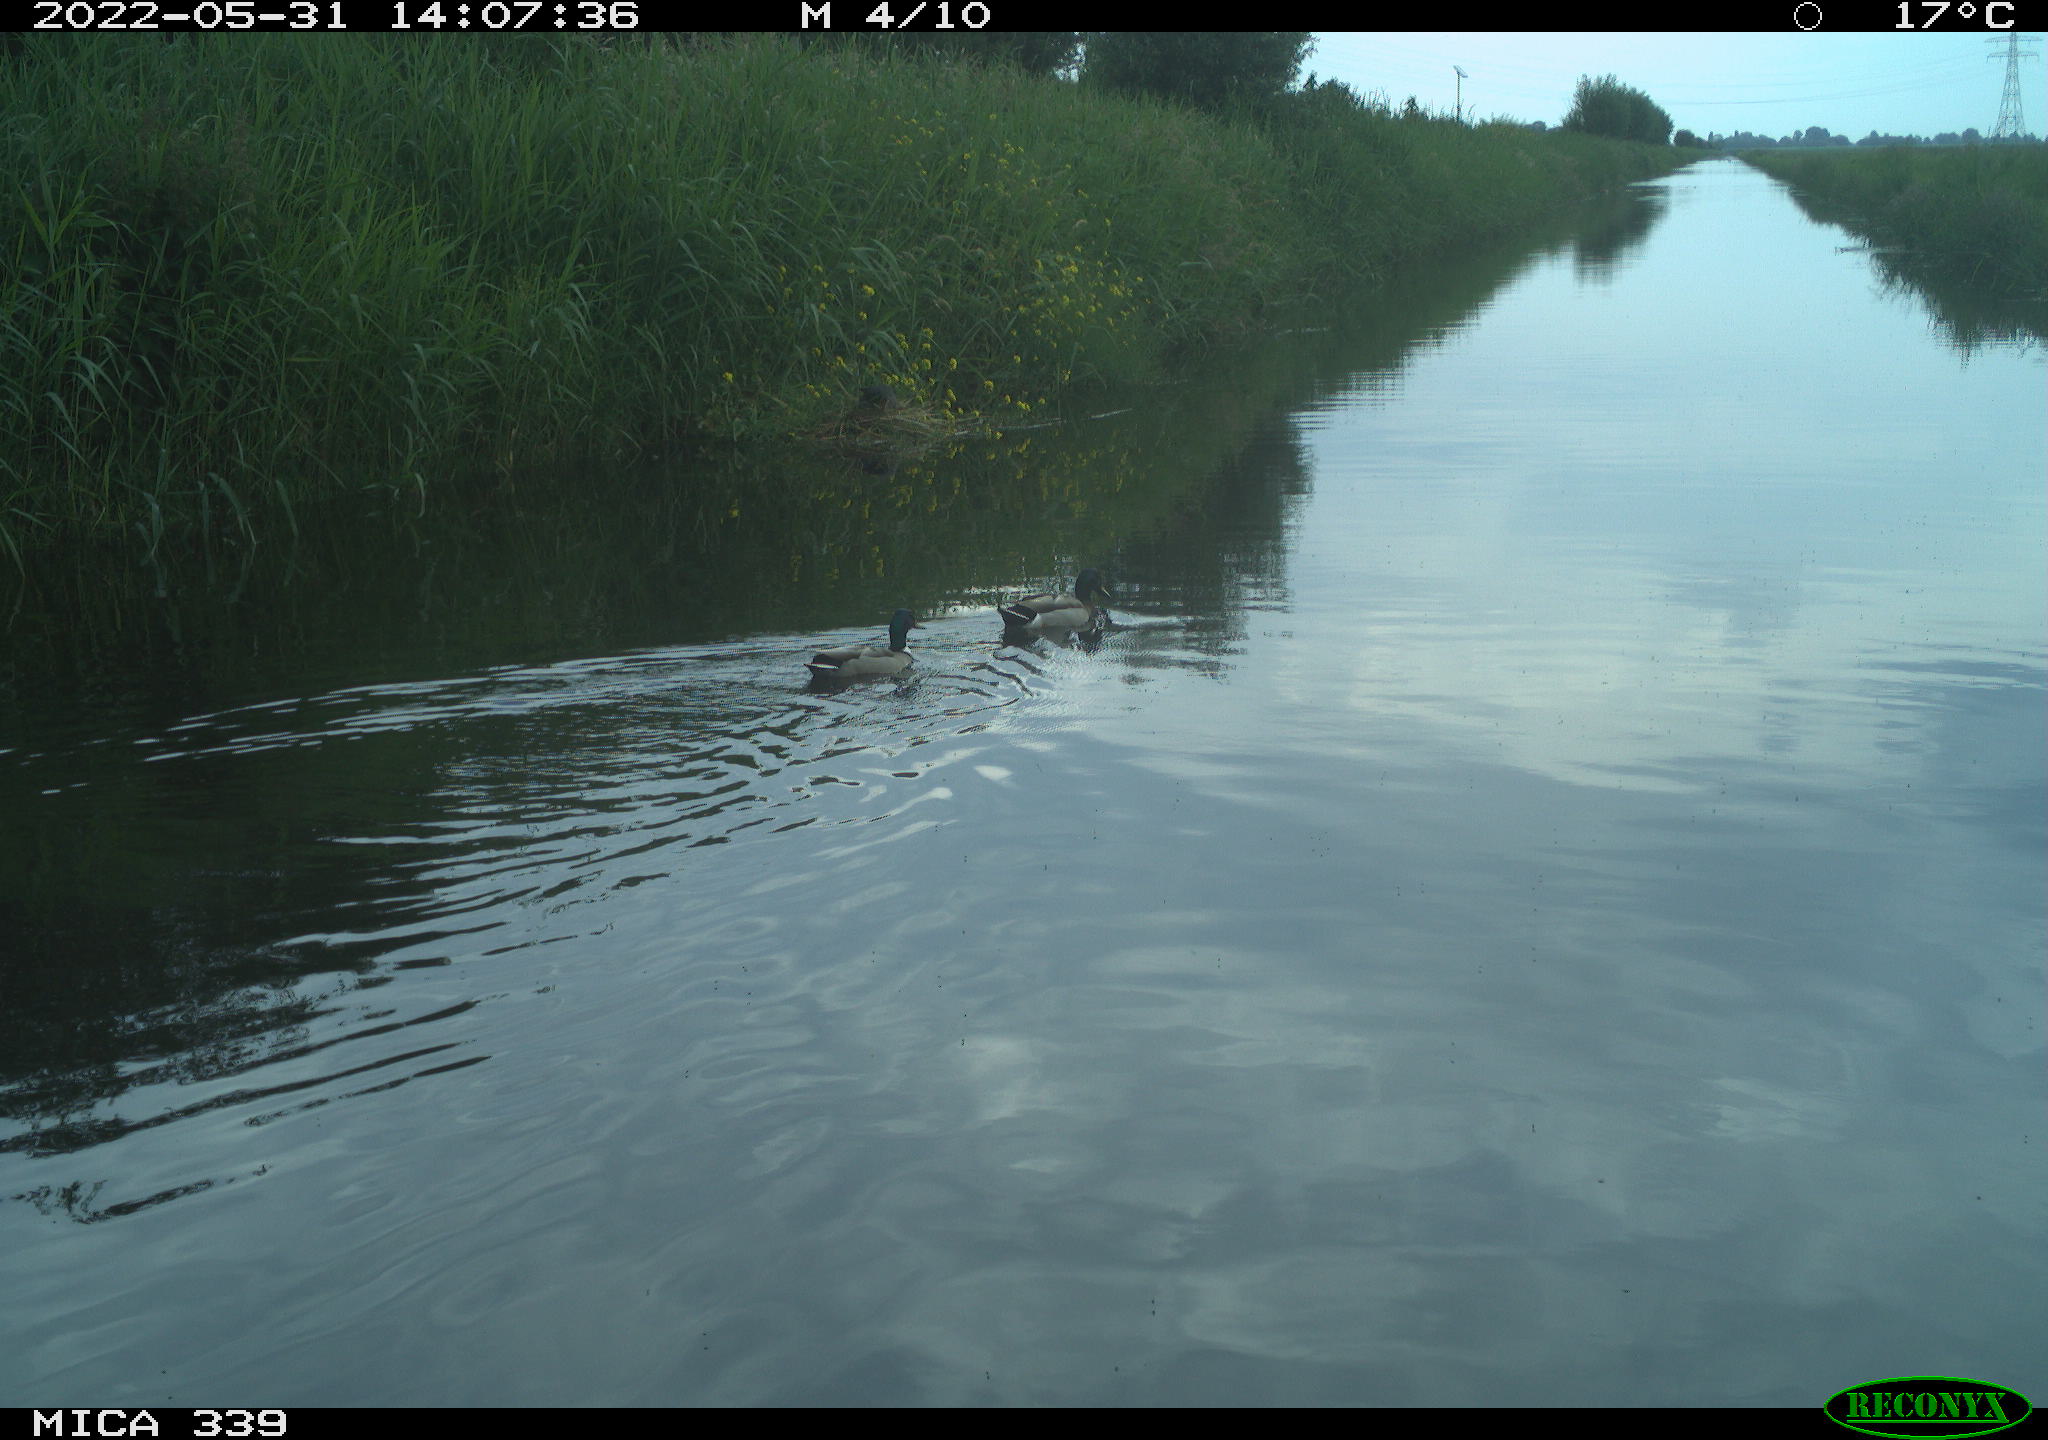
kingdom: Animalia
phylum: Chordata
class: Aves
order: Anseriformes
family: Anatidae
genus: Anas
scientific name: Anas platyrhynchos
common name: Mallard
